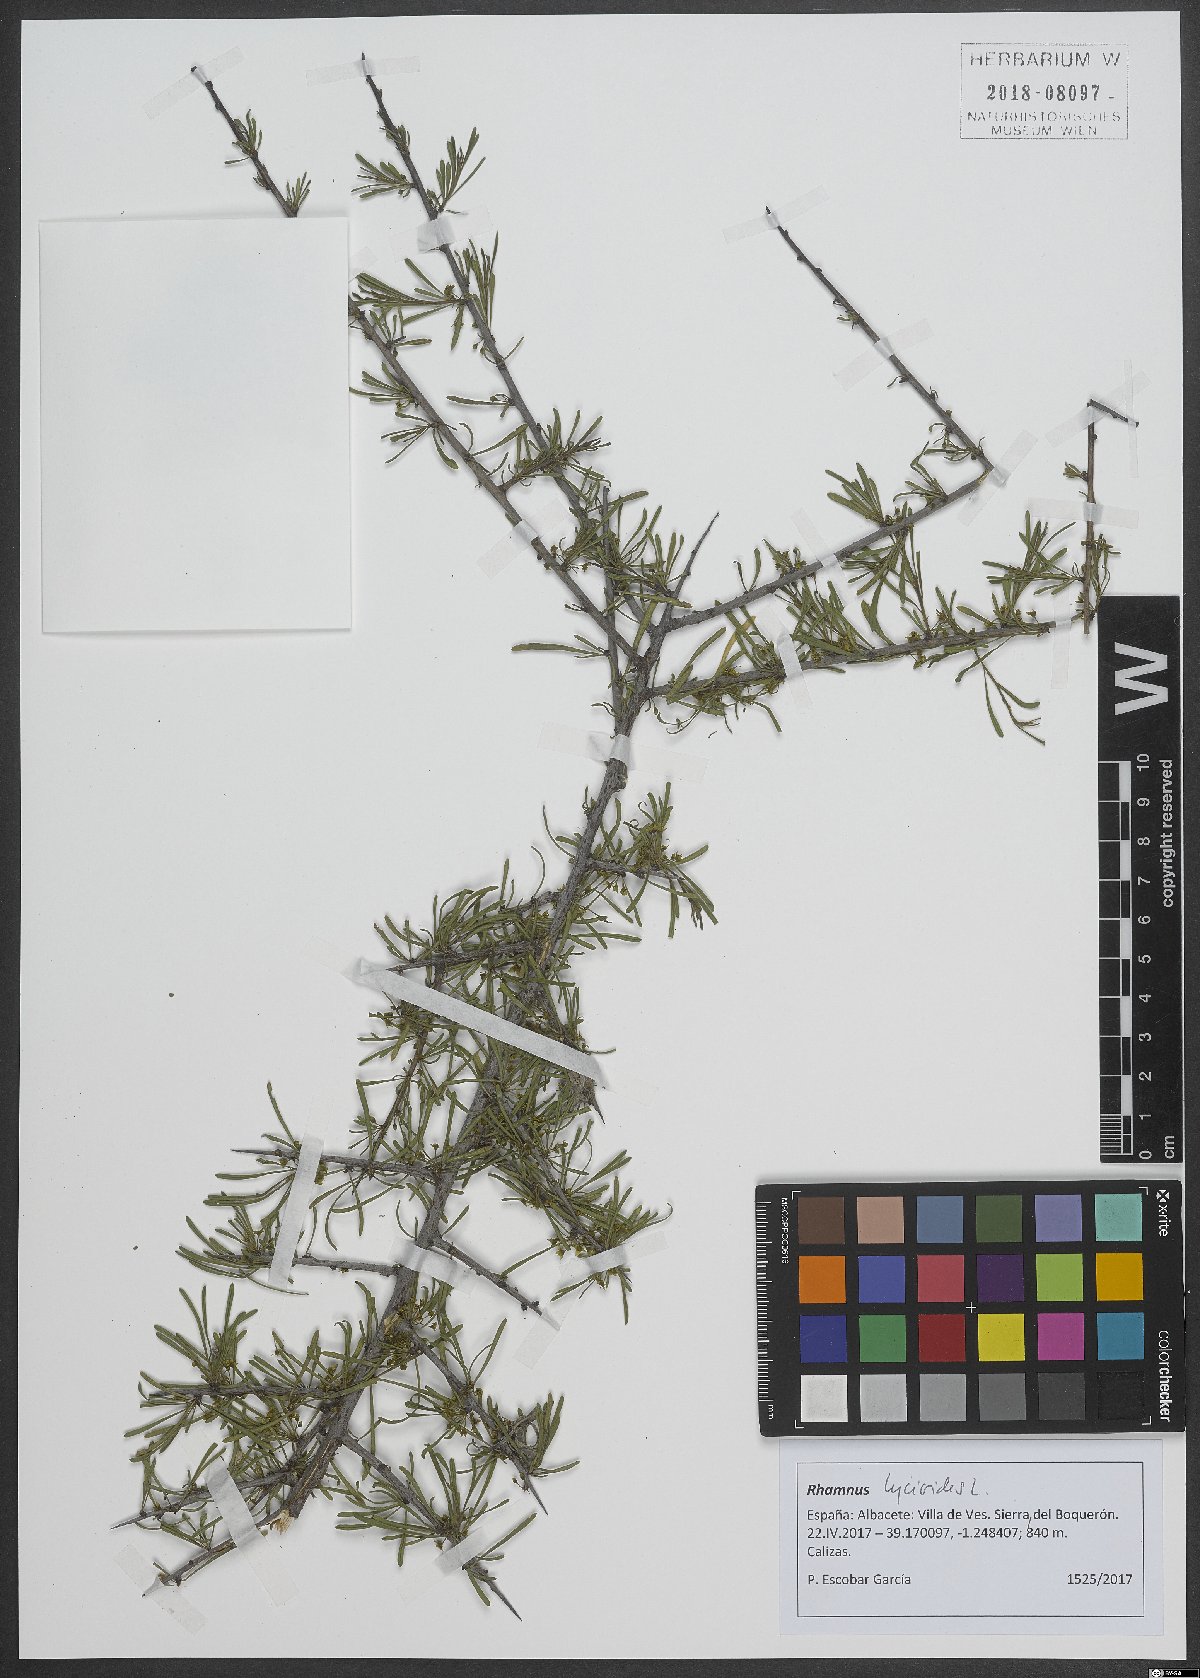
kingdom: Plantae
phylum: Tracheophyta
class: Magnoliopsida
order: Rosales
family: Rhamnaceae
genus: Rhamnus
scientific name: Rhamnus lycioides
